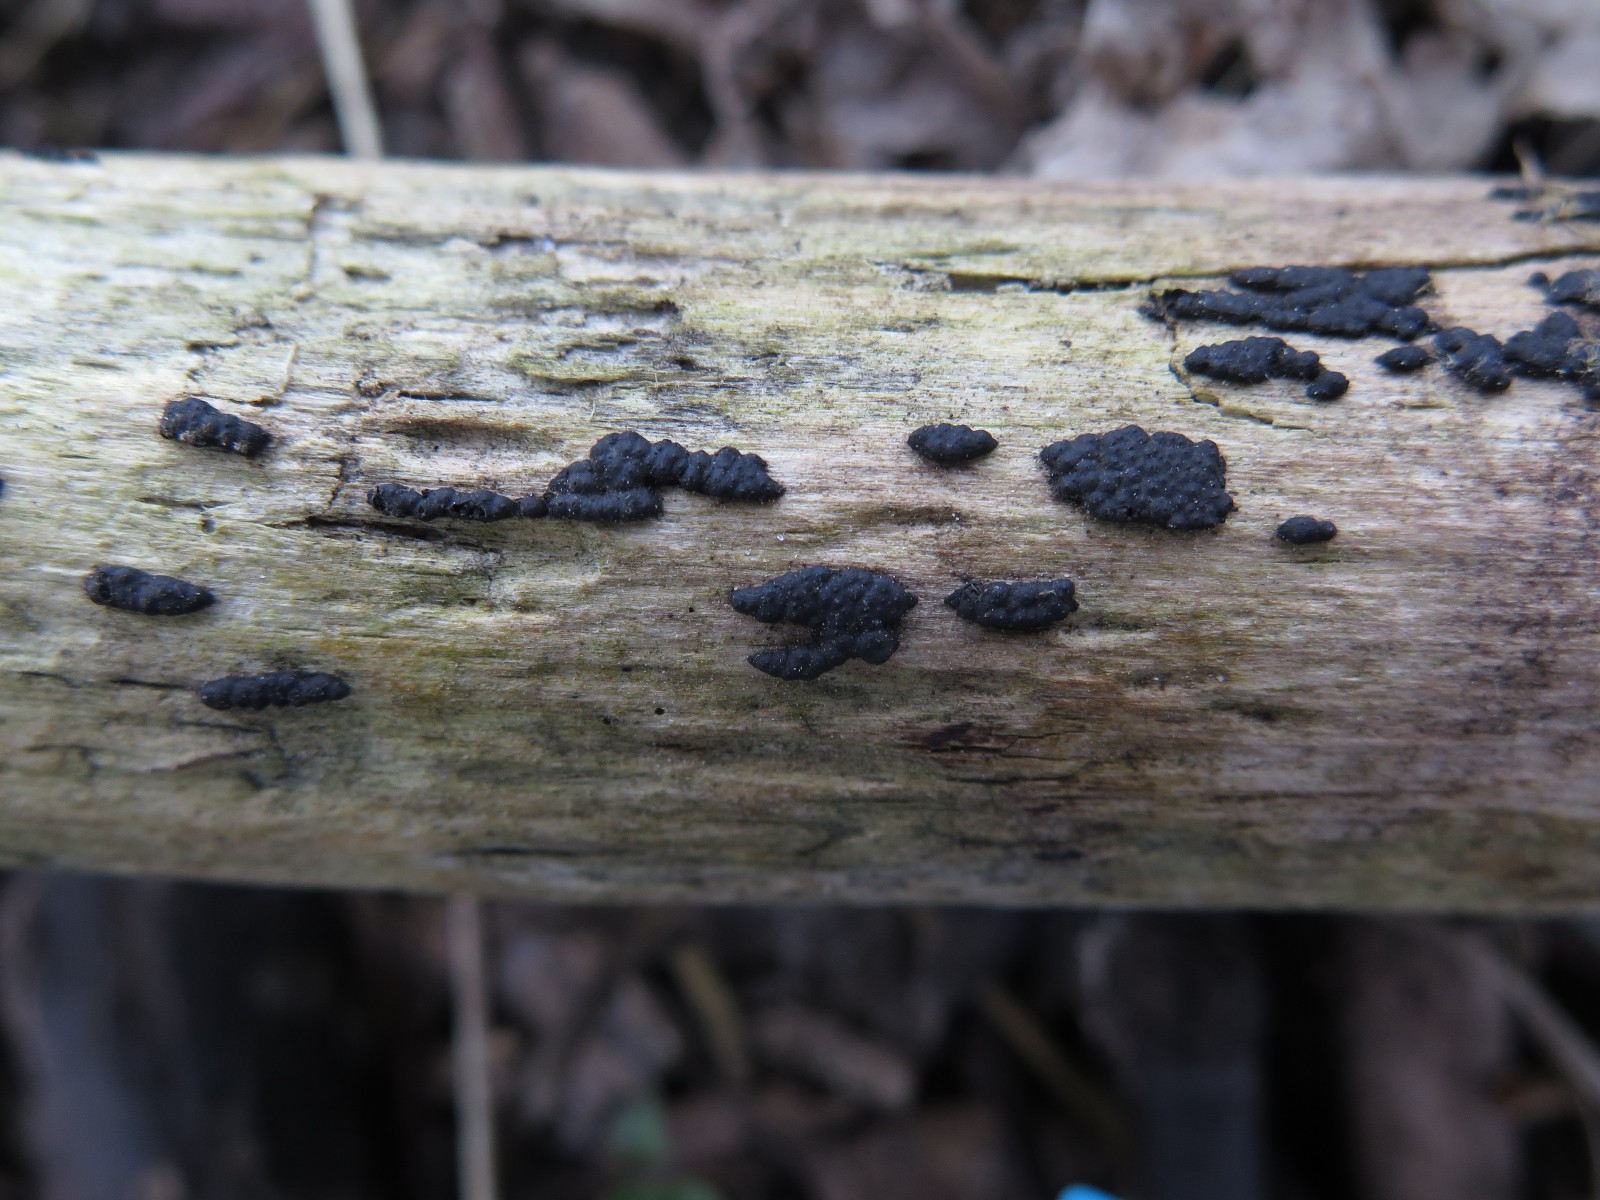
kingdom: Fungi
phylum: Ascomycota
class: Sordariomycetes
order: Xylariales
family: Xylariaceae
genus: Nemania
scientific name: Nemania serpens
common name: almindelig kuldyne
